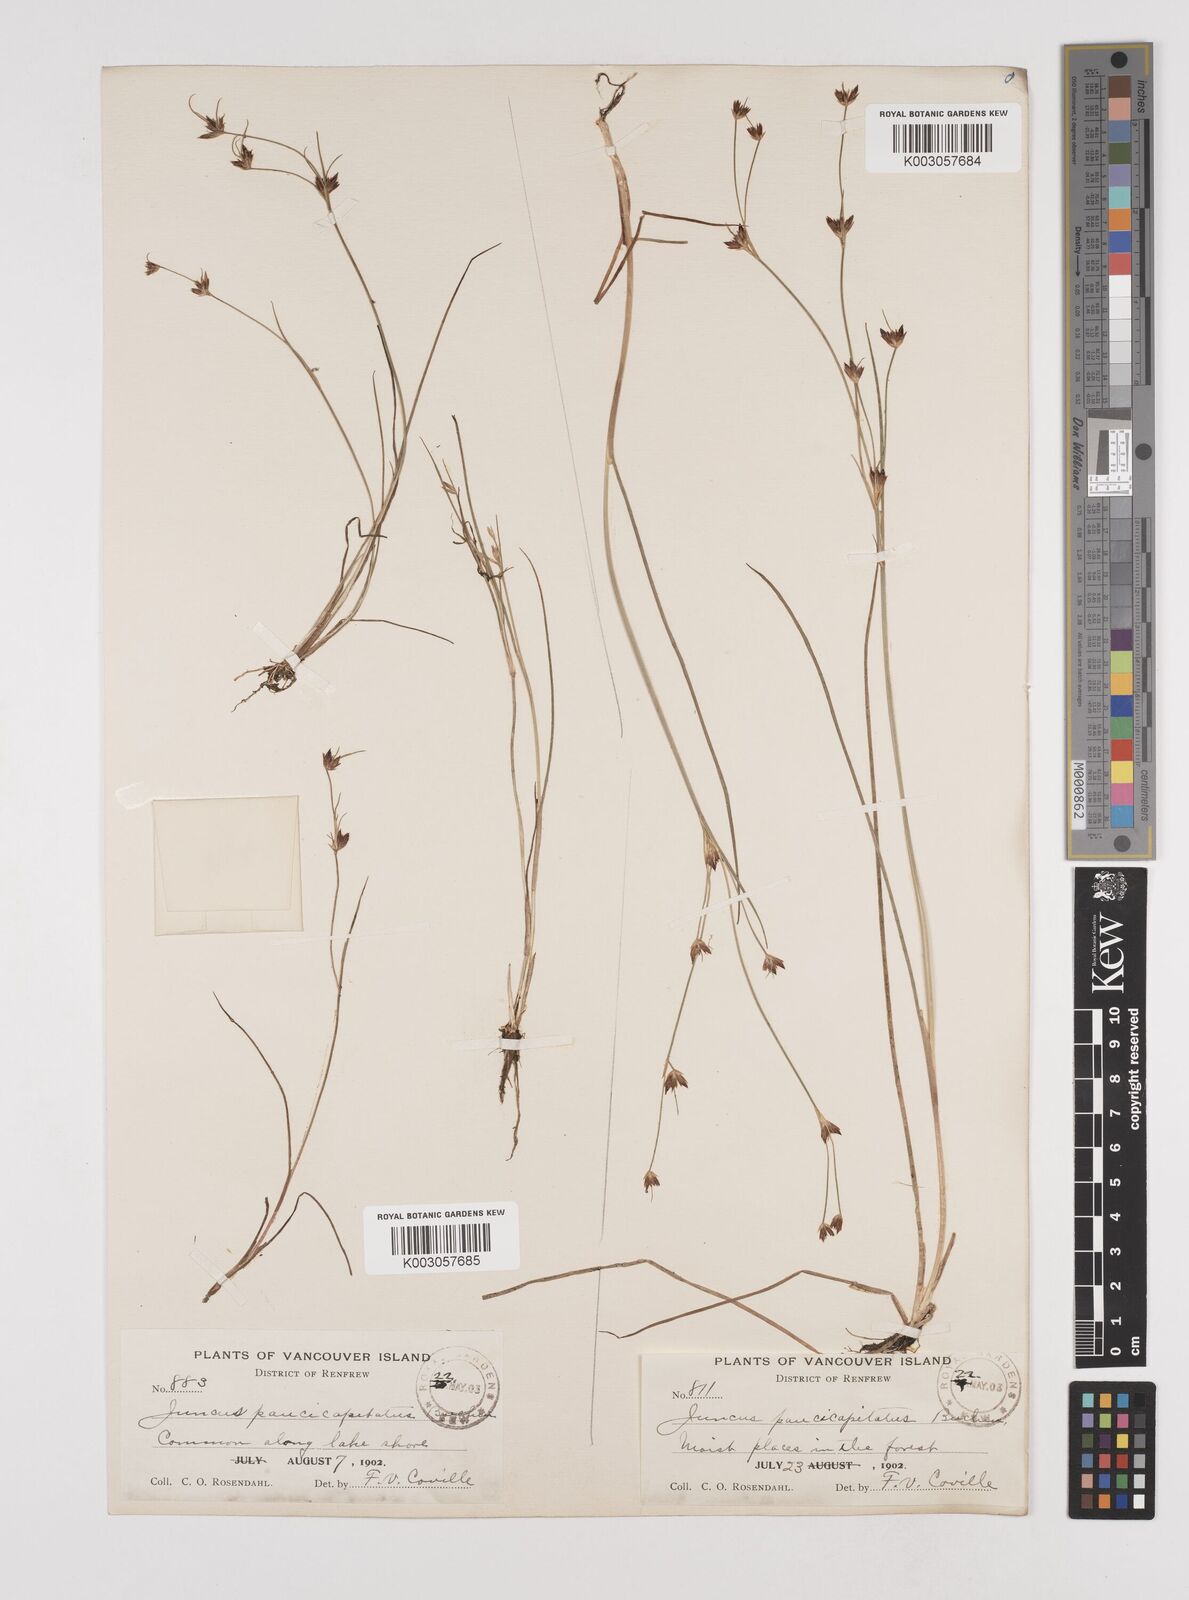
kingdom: Plantae
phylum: Tracheophyta
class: Liliopsida
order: Poales
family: Juncaceae
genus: Juncus
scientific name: Juncus supiniformis
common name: Hairy-leaved rush
